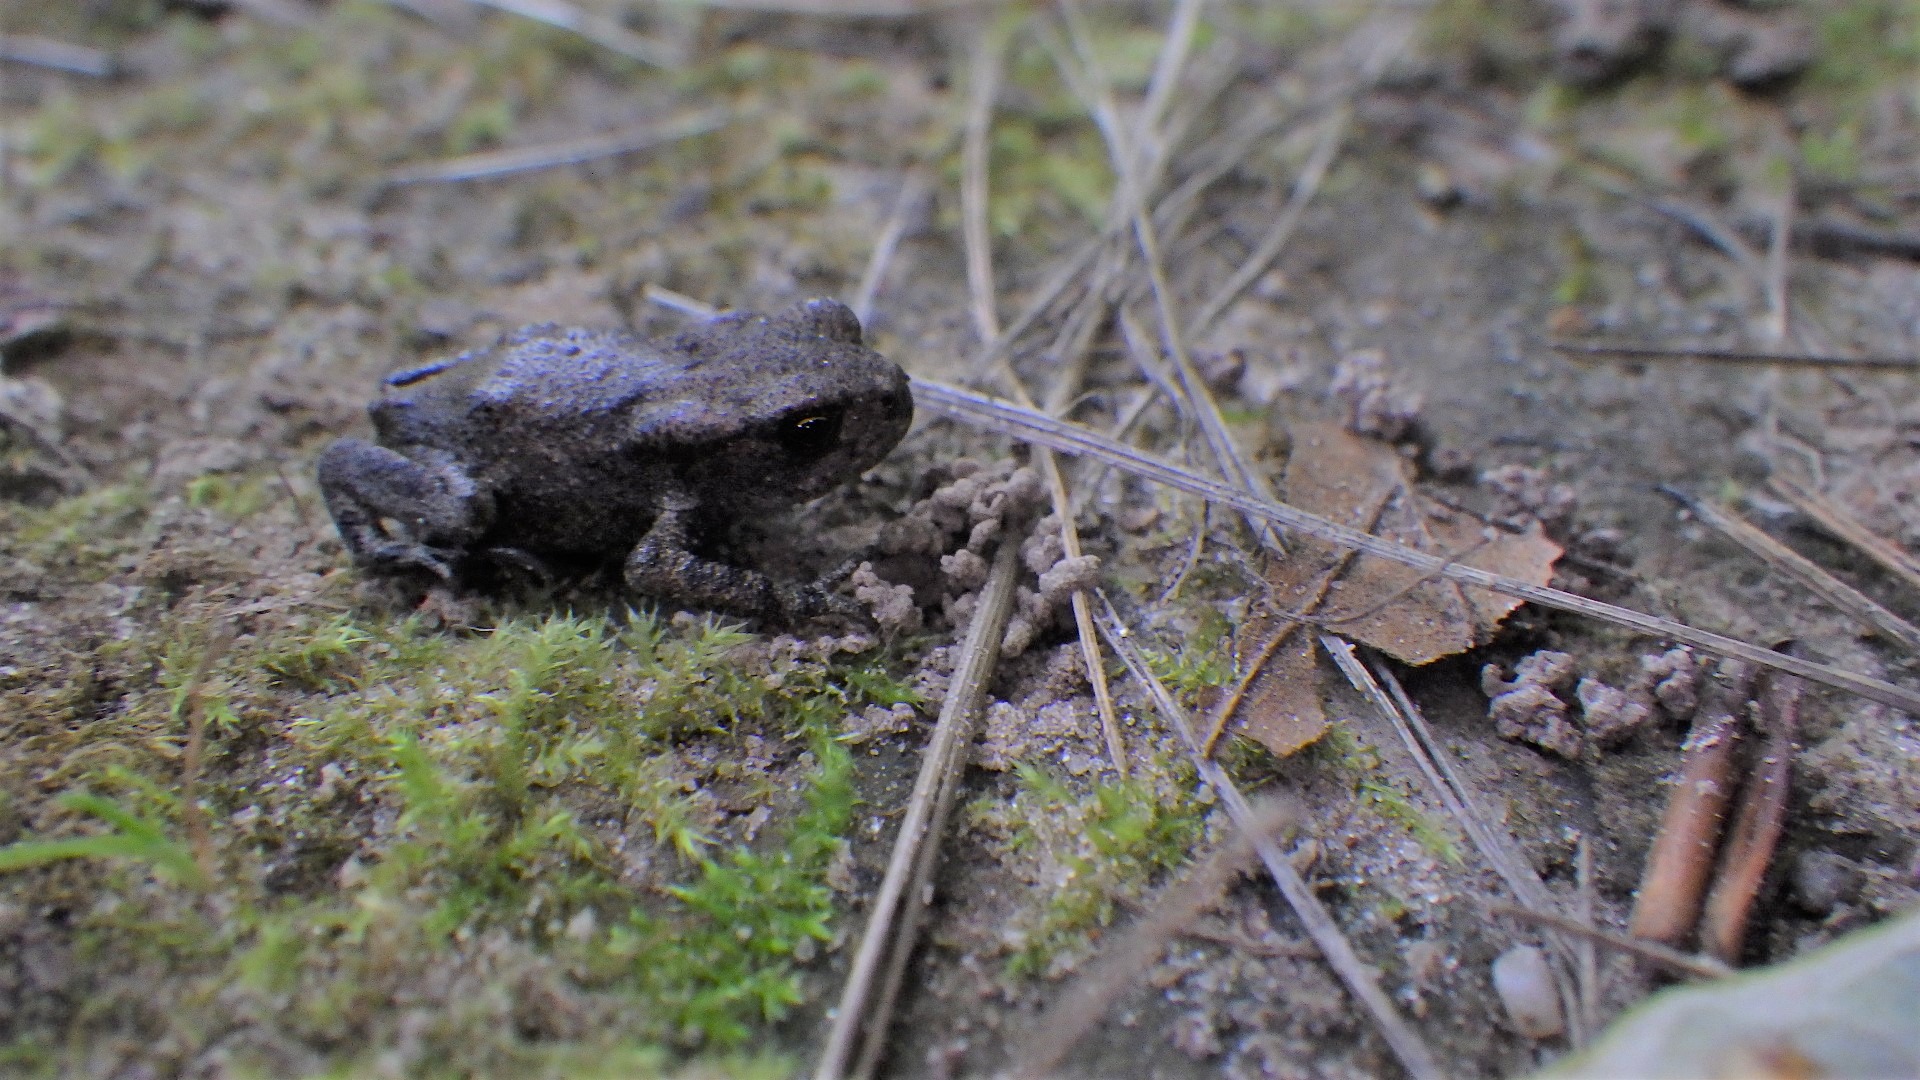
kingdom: Animalia
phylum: Chordata
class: Amphibia
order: Anura
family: Bufonidae
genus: Bufo
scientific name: Bufo bufo
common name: Skrubtudse
